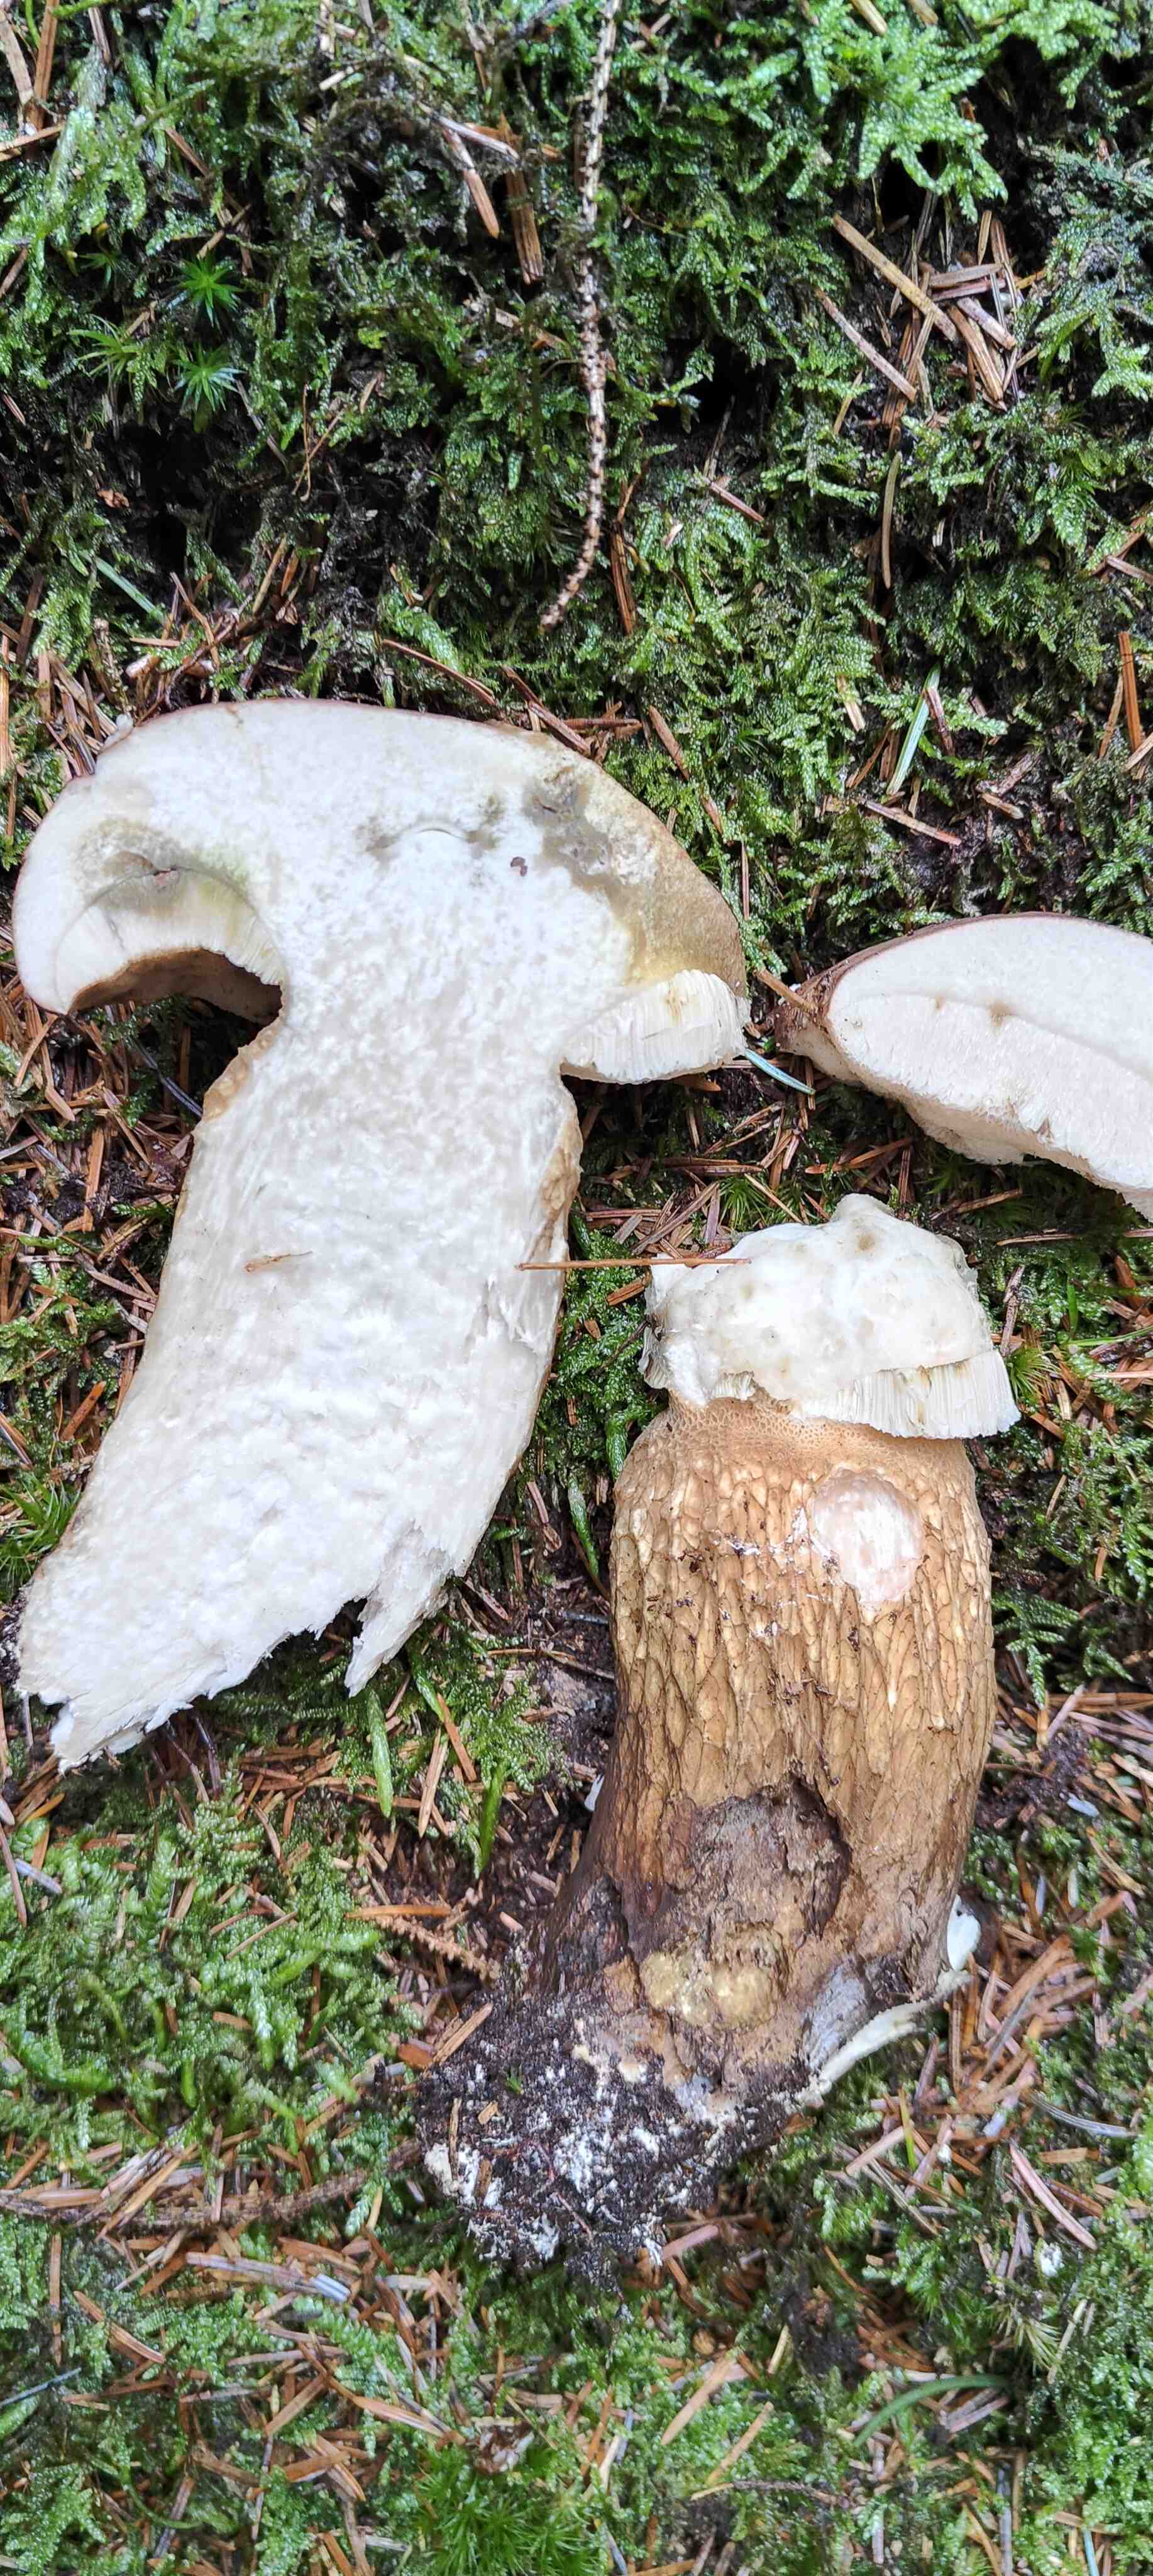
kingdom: Fungi
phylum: Basidiomycota
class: Agaricomycetes
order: Boletales
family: Boletaceae
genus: Tylopilus
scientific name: Tylopilus felleus
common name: galderørhat
